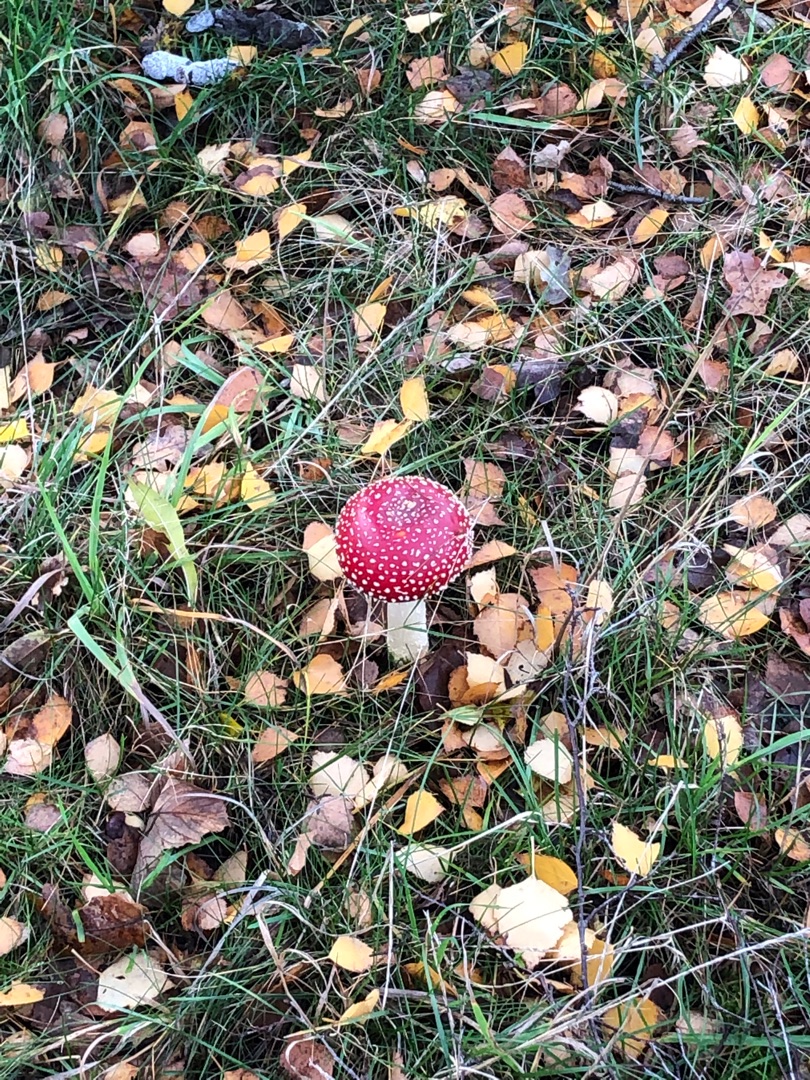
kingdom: Fungi
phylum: Basidiomycota
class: Agaricomycetes
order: Agaricales
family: Amanitaceae
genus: Amanita
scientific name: Amanita muscaria
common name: Rød fluesvamp
